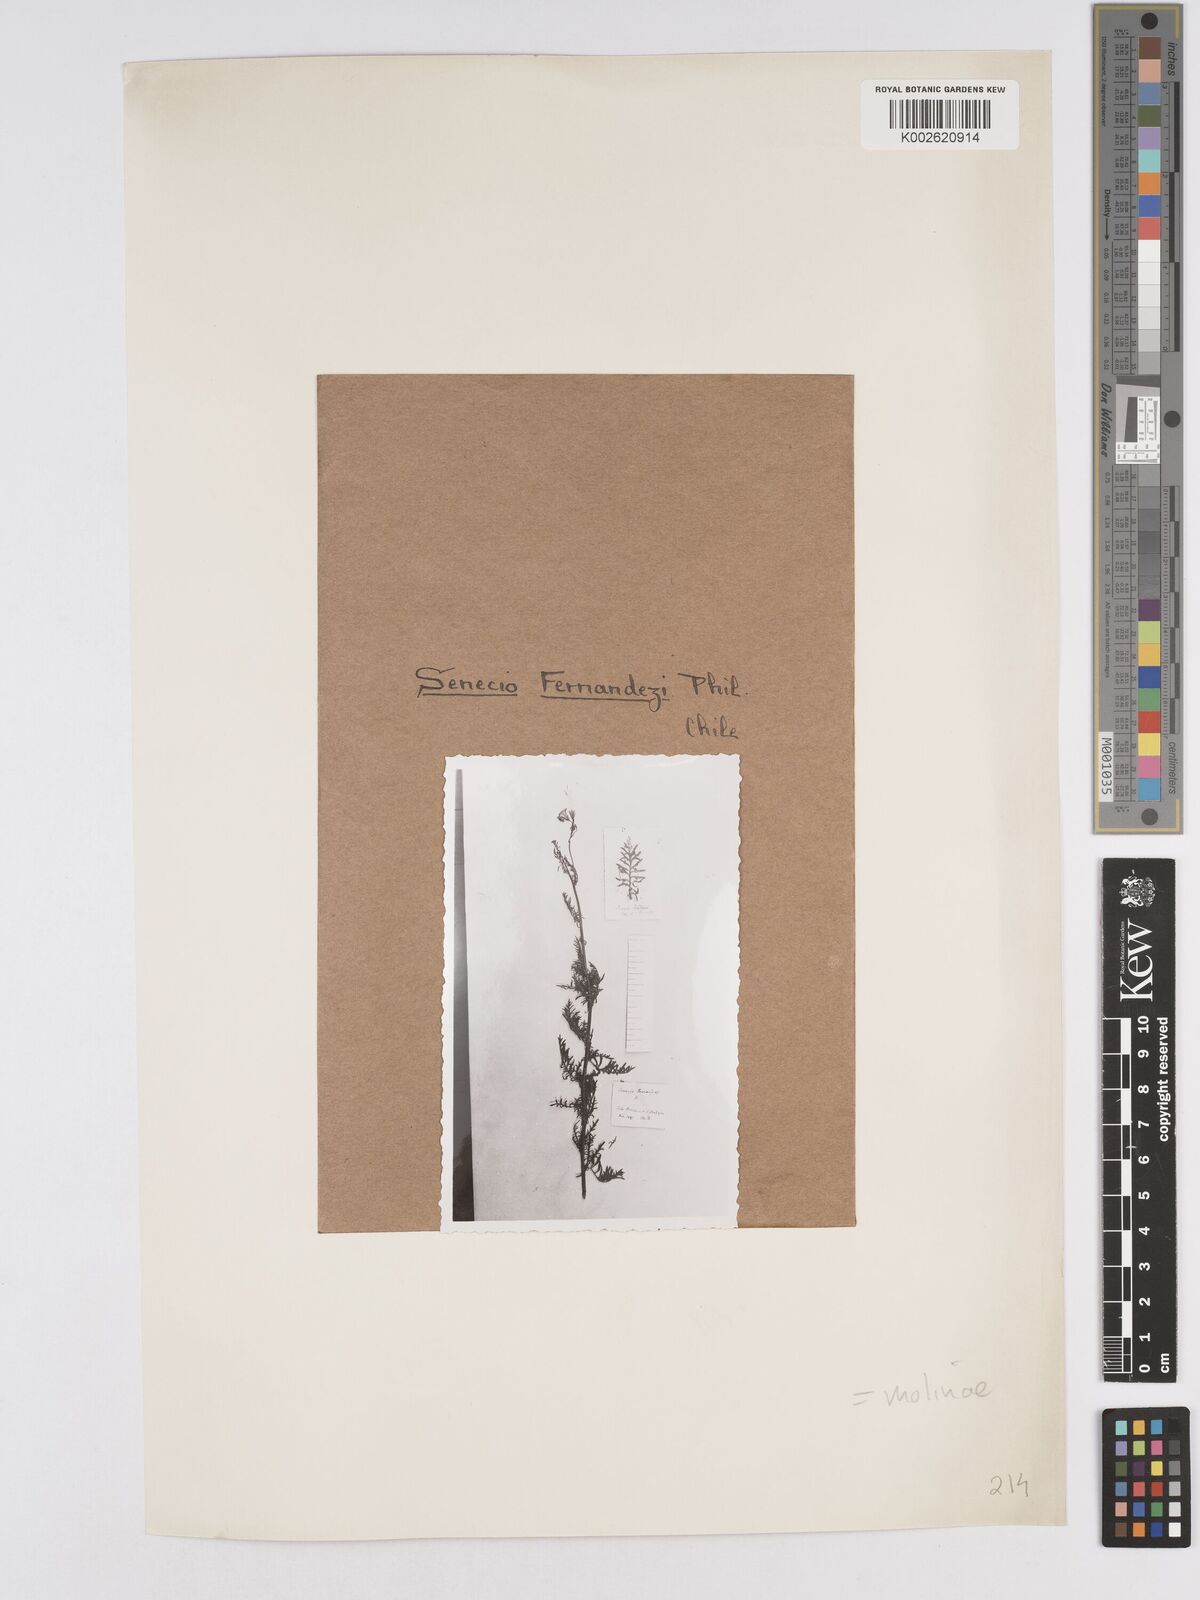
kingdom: Plantae
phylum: Tracheophyta
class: Magnoliopsida
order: Asterales
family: Asteraceae
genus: Senecio
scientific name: Senecio glaber
